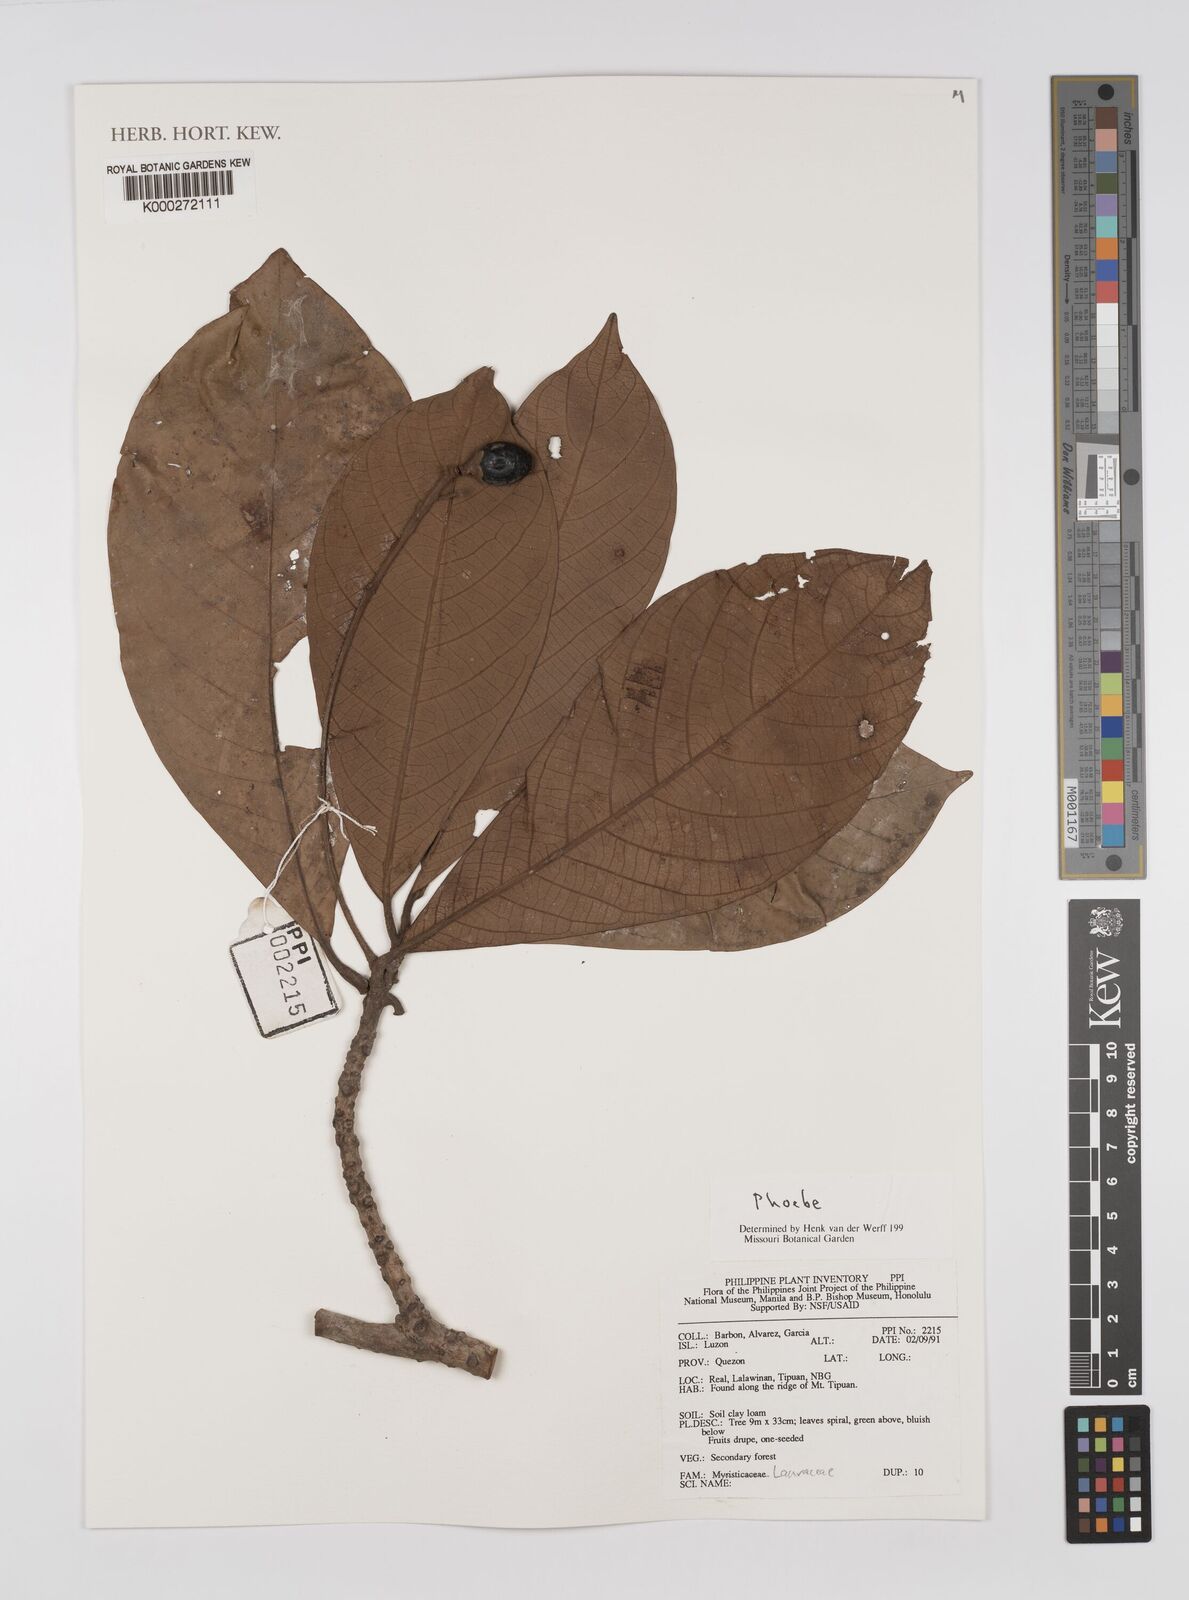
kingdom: Plantae
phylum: Tracheophyta
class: Magnoliopsida
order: Laurales
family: Lauraceae
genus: Phoebe
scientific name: Phoebe
